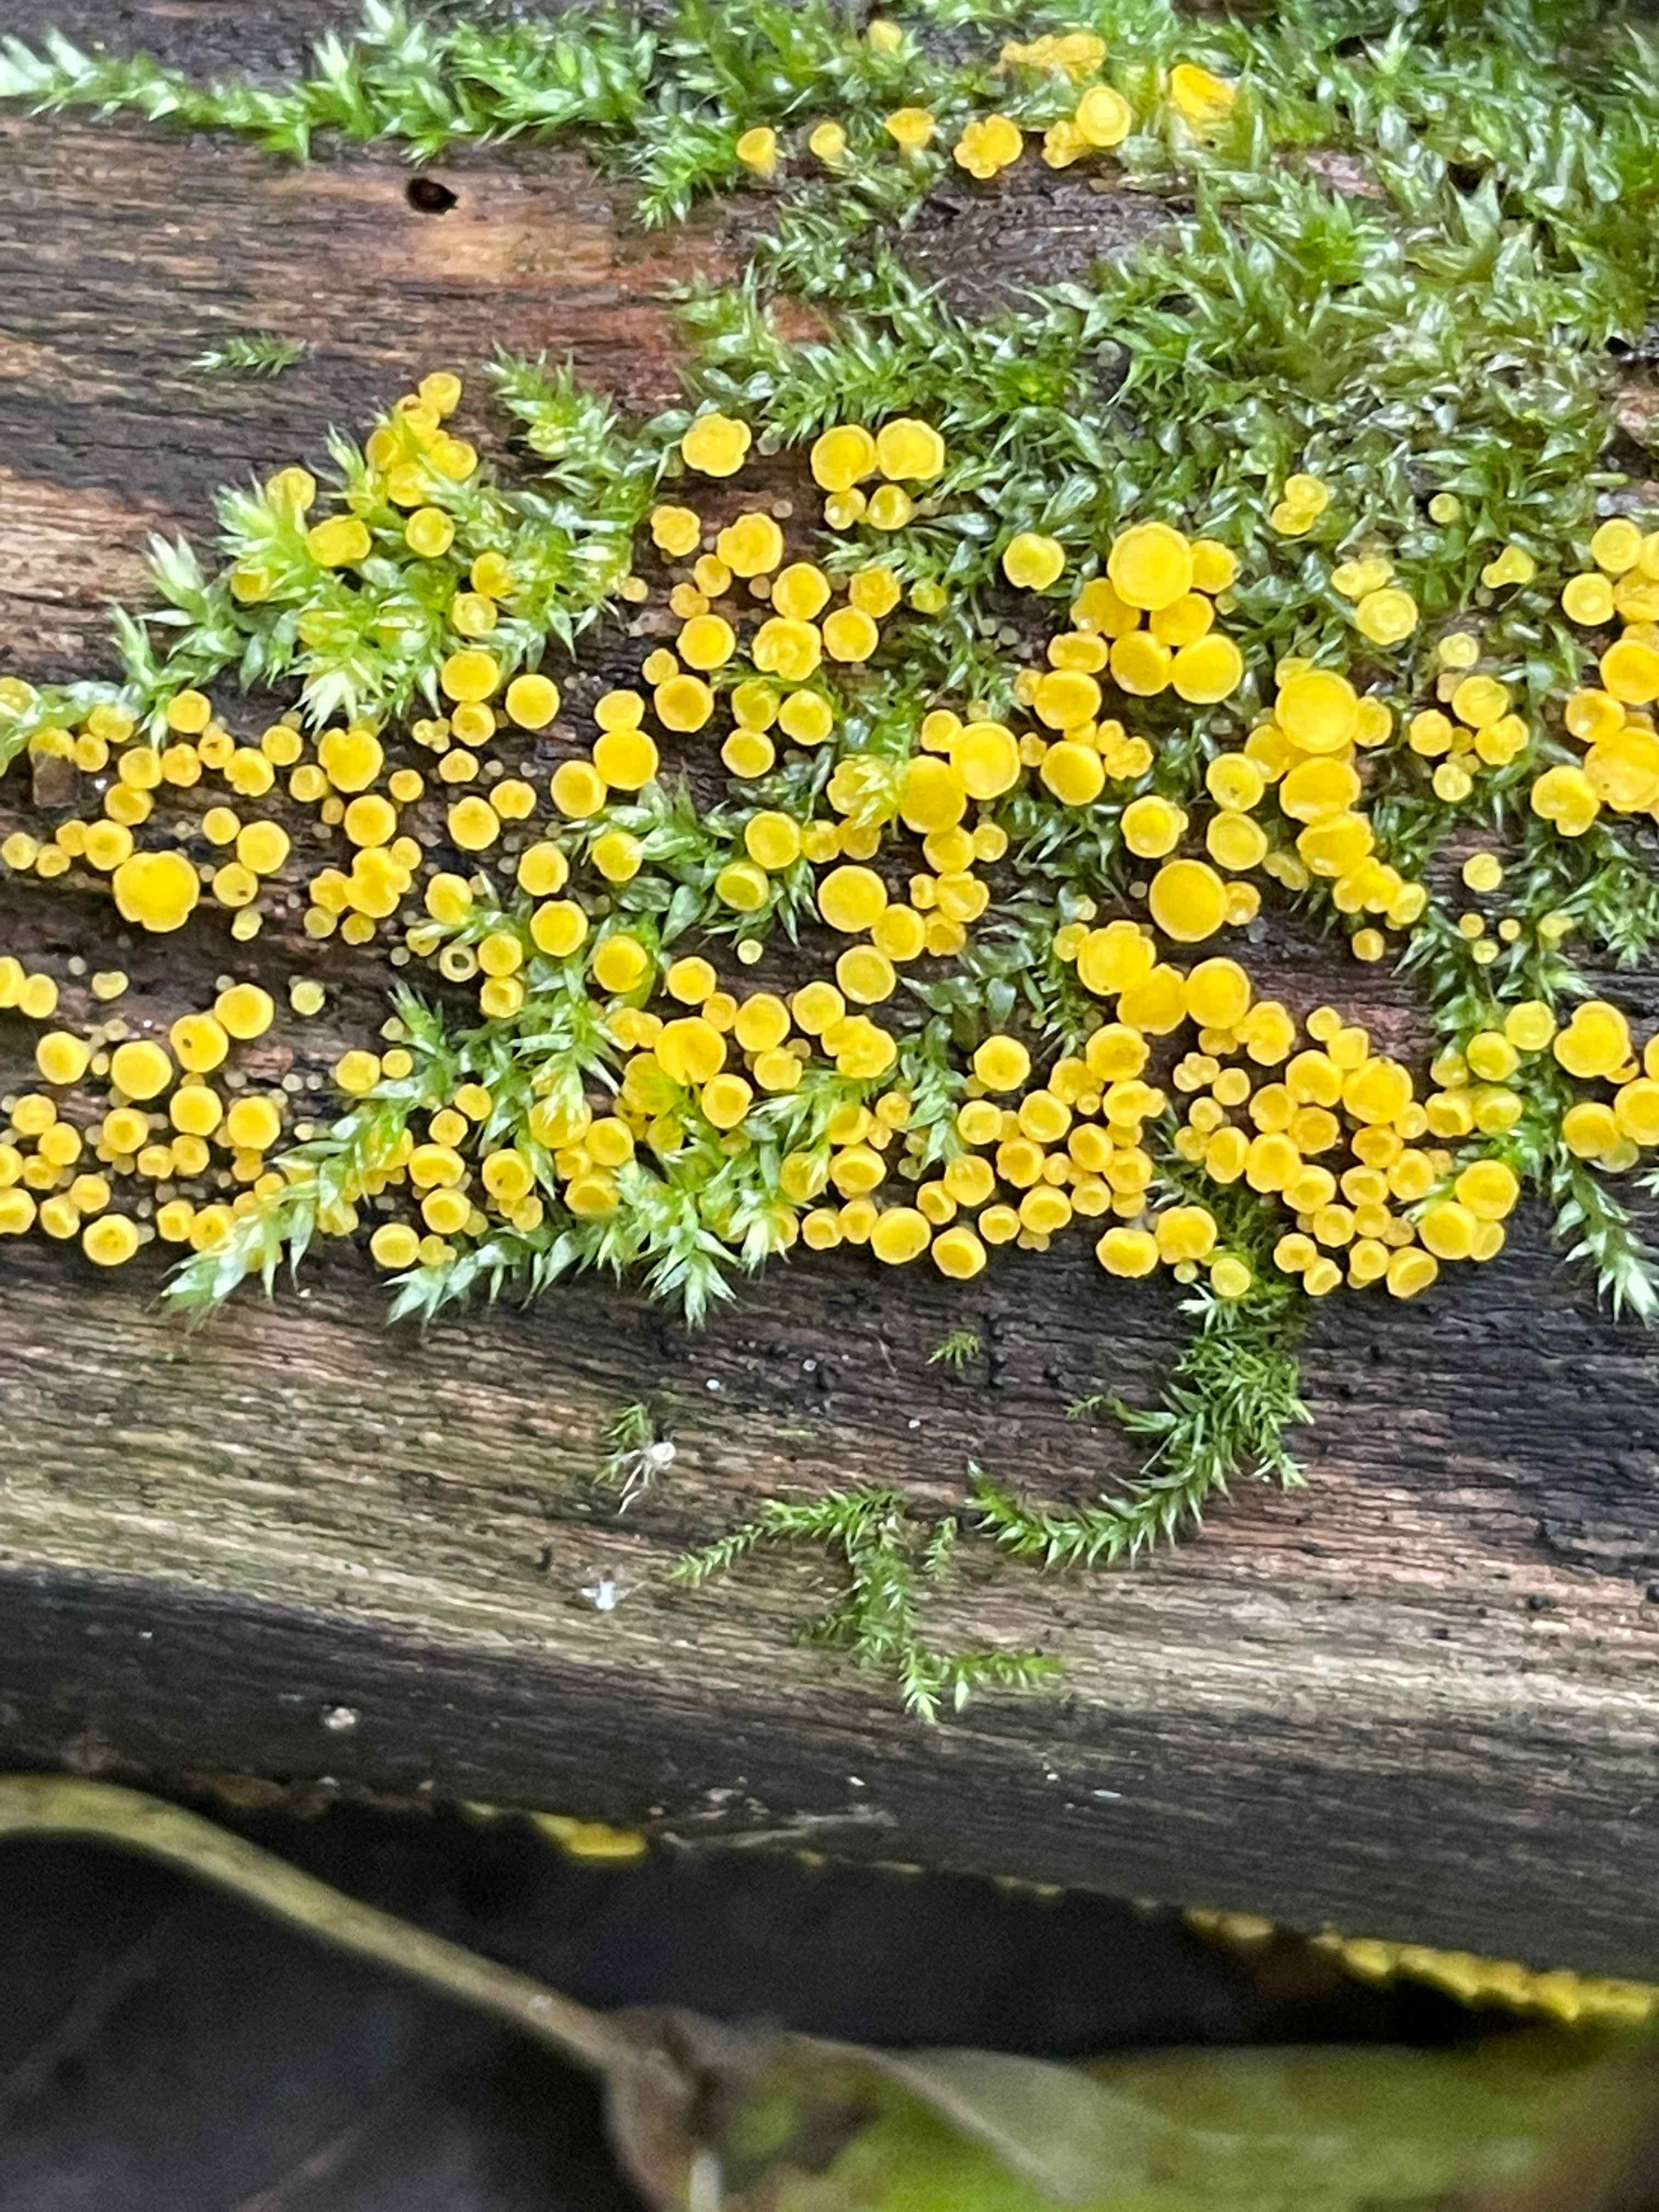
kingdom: Fungi
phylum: Ascomycota
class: Leotiomycetes
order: Helotiales
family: Pezizellaceae
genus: Calycina
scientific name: Calycina citrina
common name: almindelig gulskive
